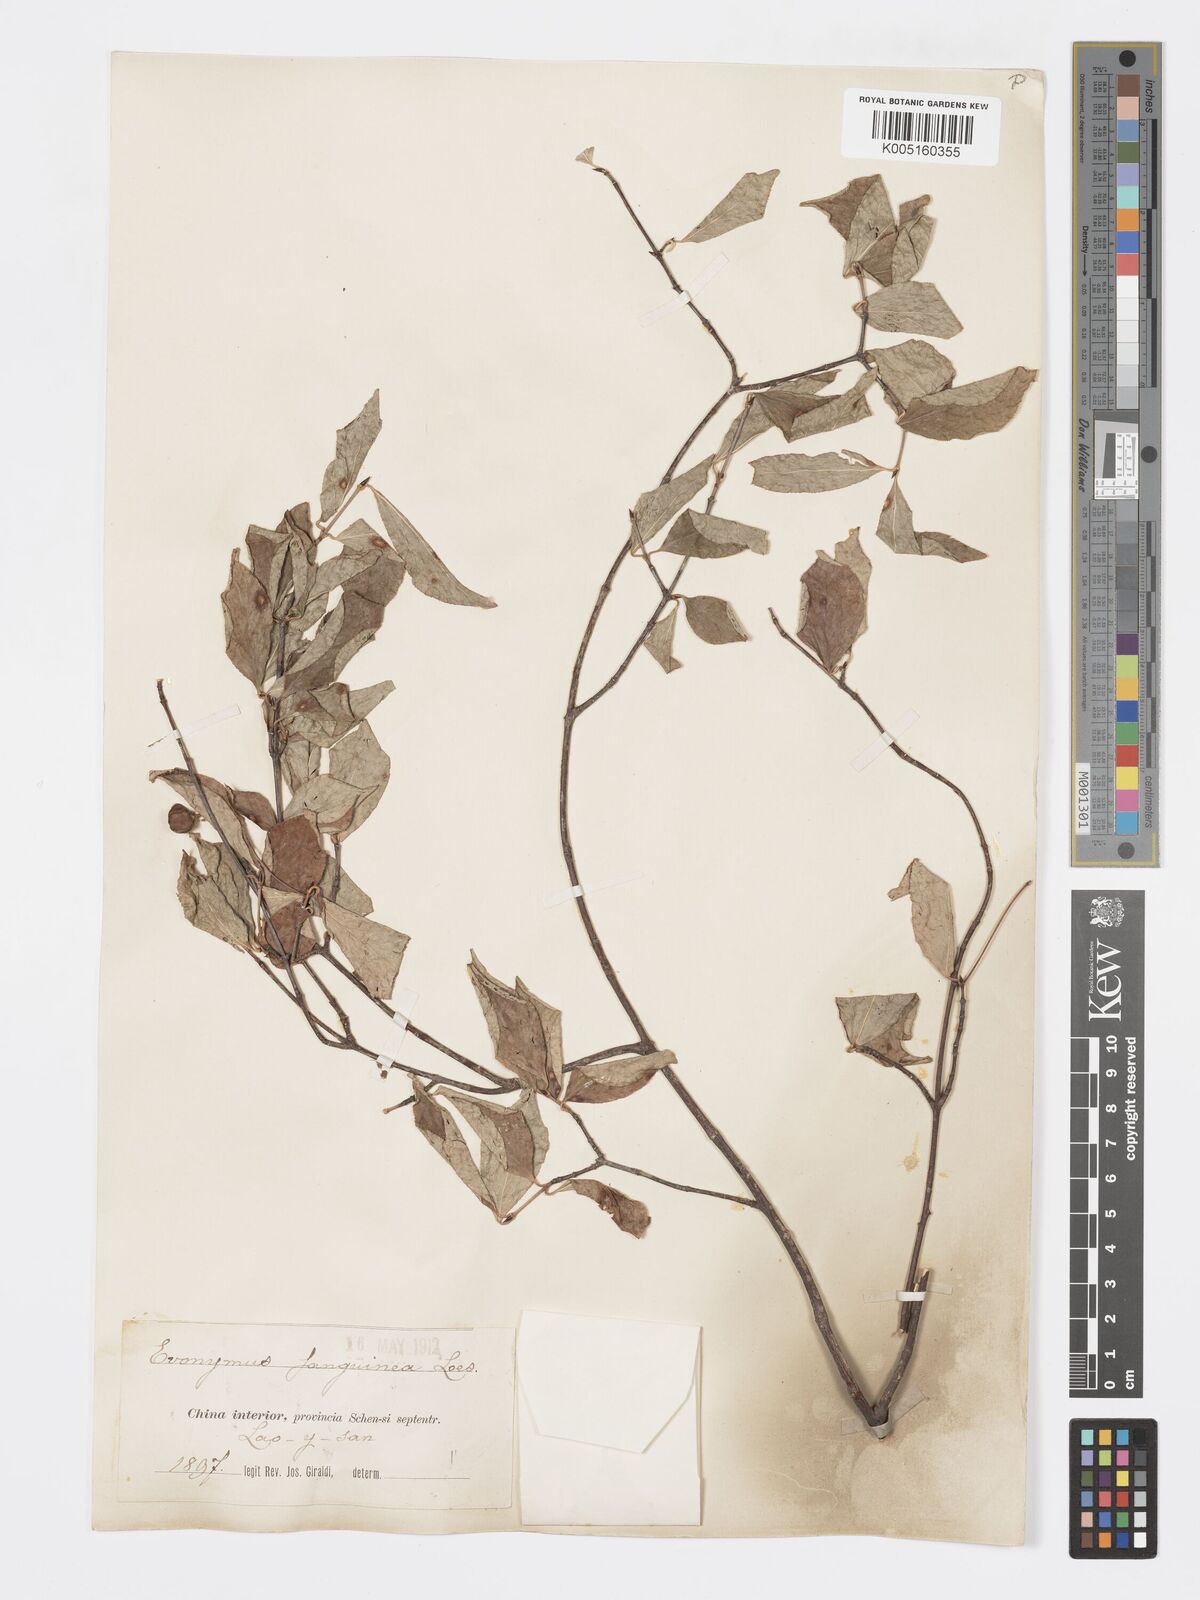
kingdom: Plantae
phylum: Tracheophyta
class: Magnoliopsida
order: Celastrales
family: Celastraceae
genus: Euonymus
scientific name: Euonymus macropterus
